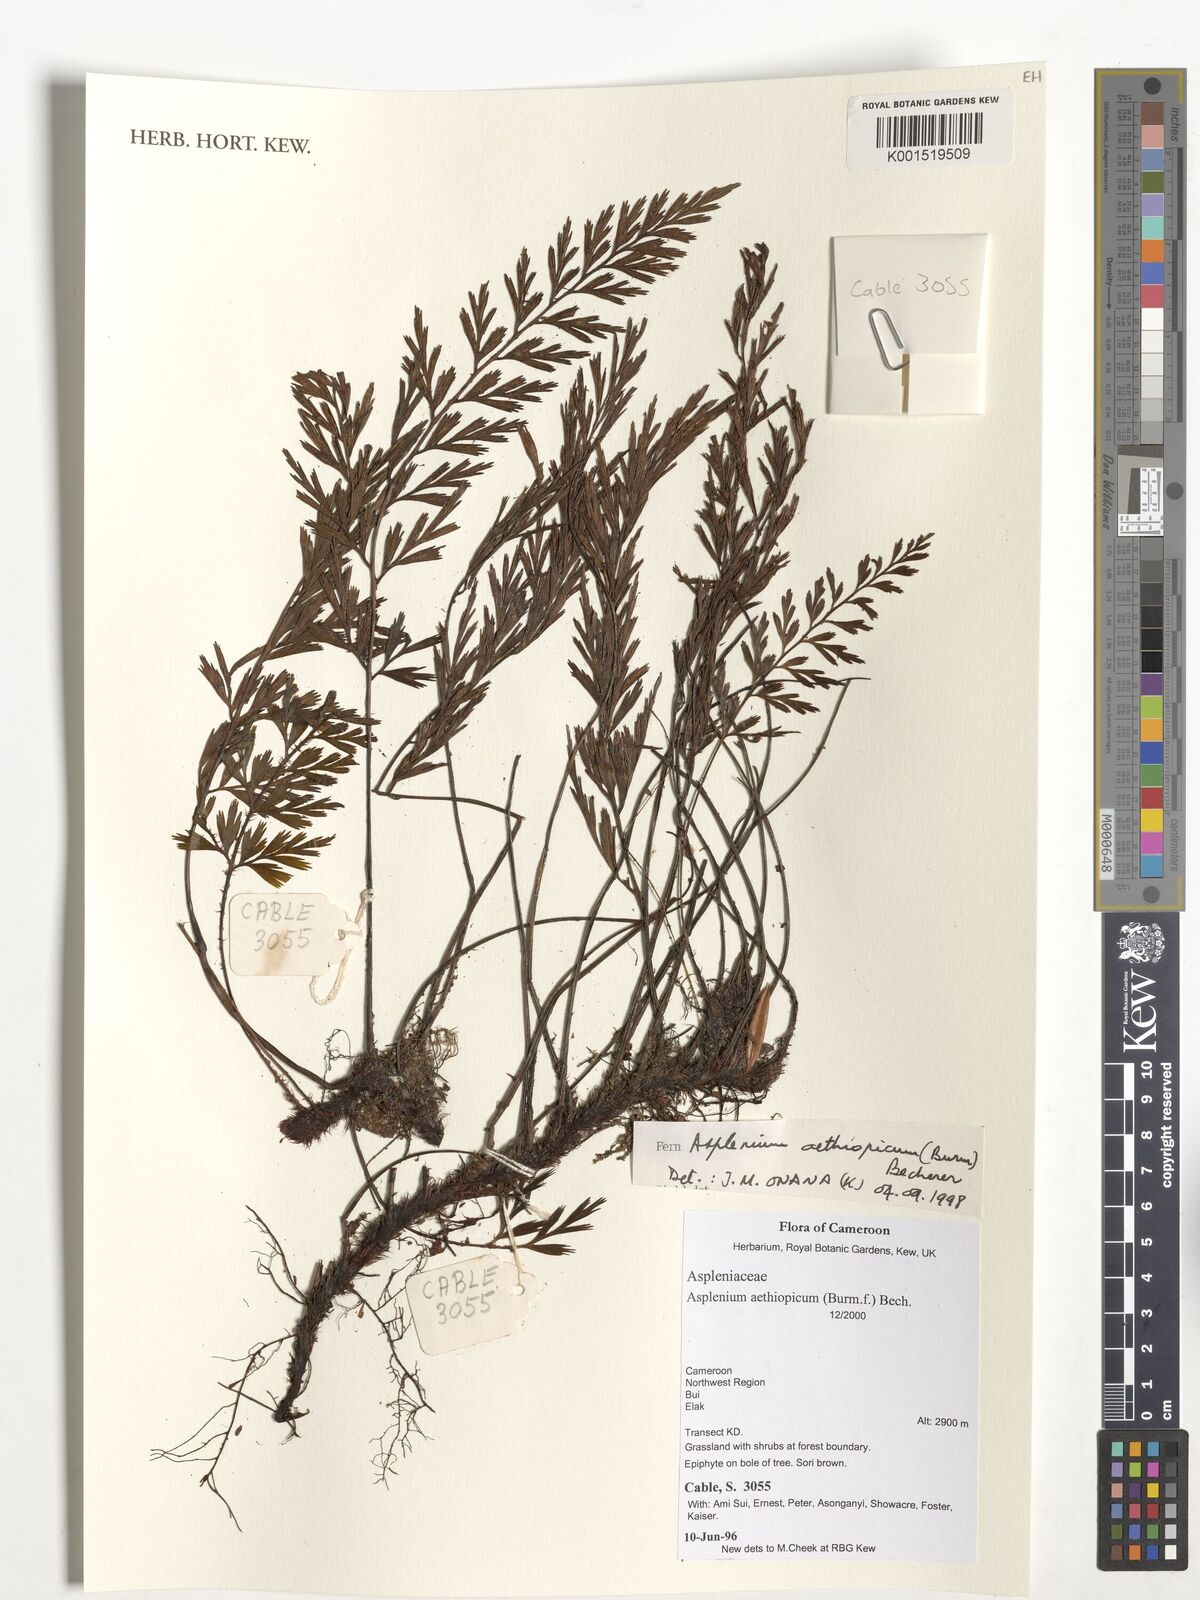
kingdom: Plantae
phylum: Tracheophyta
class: Polypodiopsida
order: Polypodiales
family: Aspleniaceae
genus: Asplenium
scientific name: Asplenium aethiopicum
